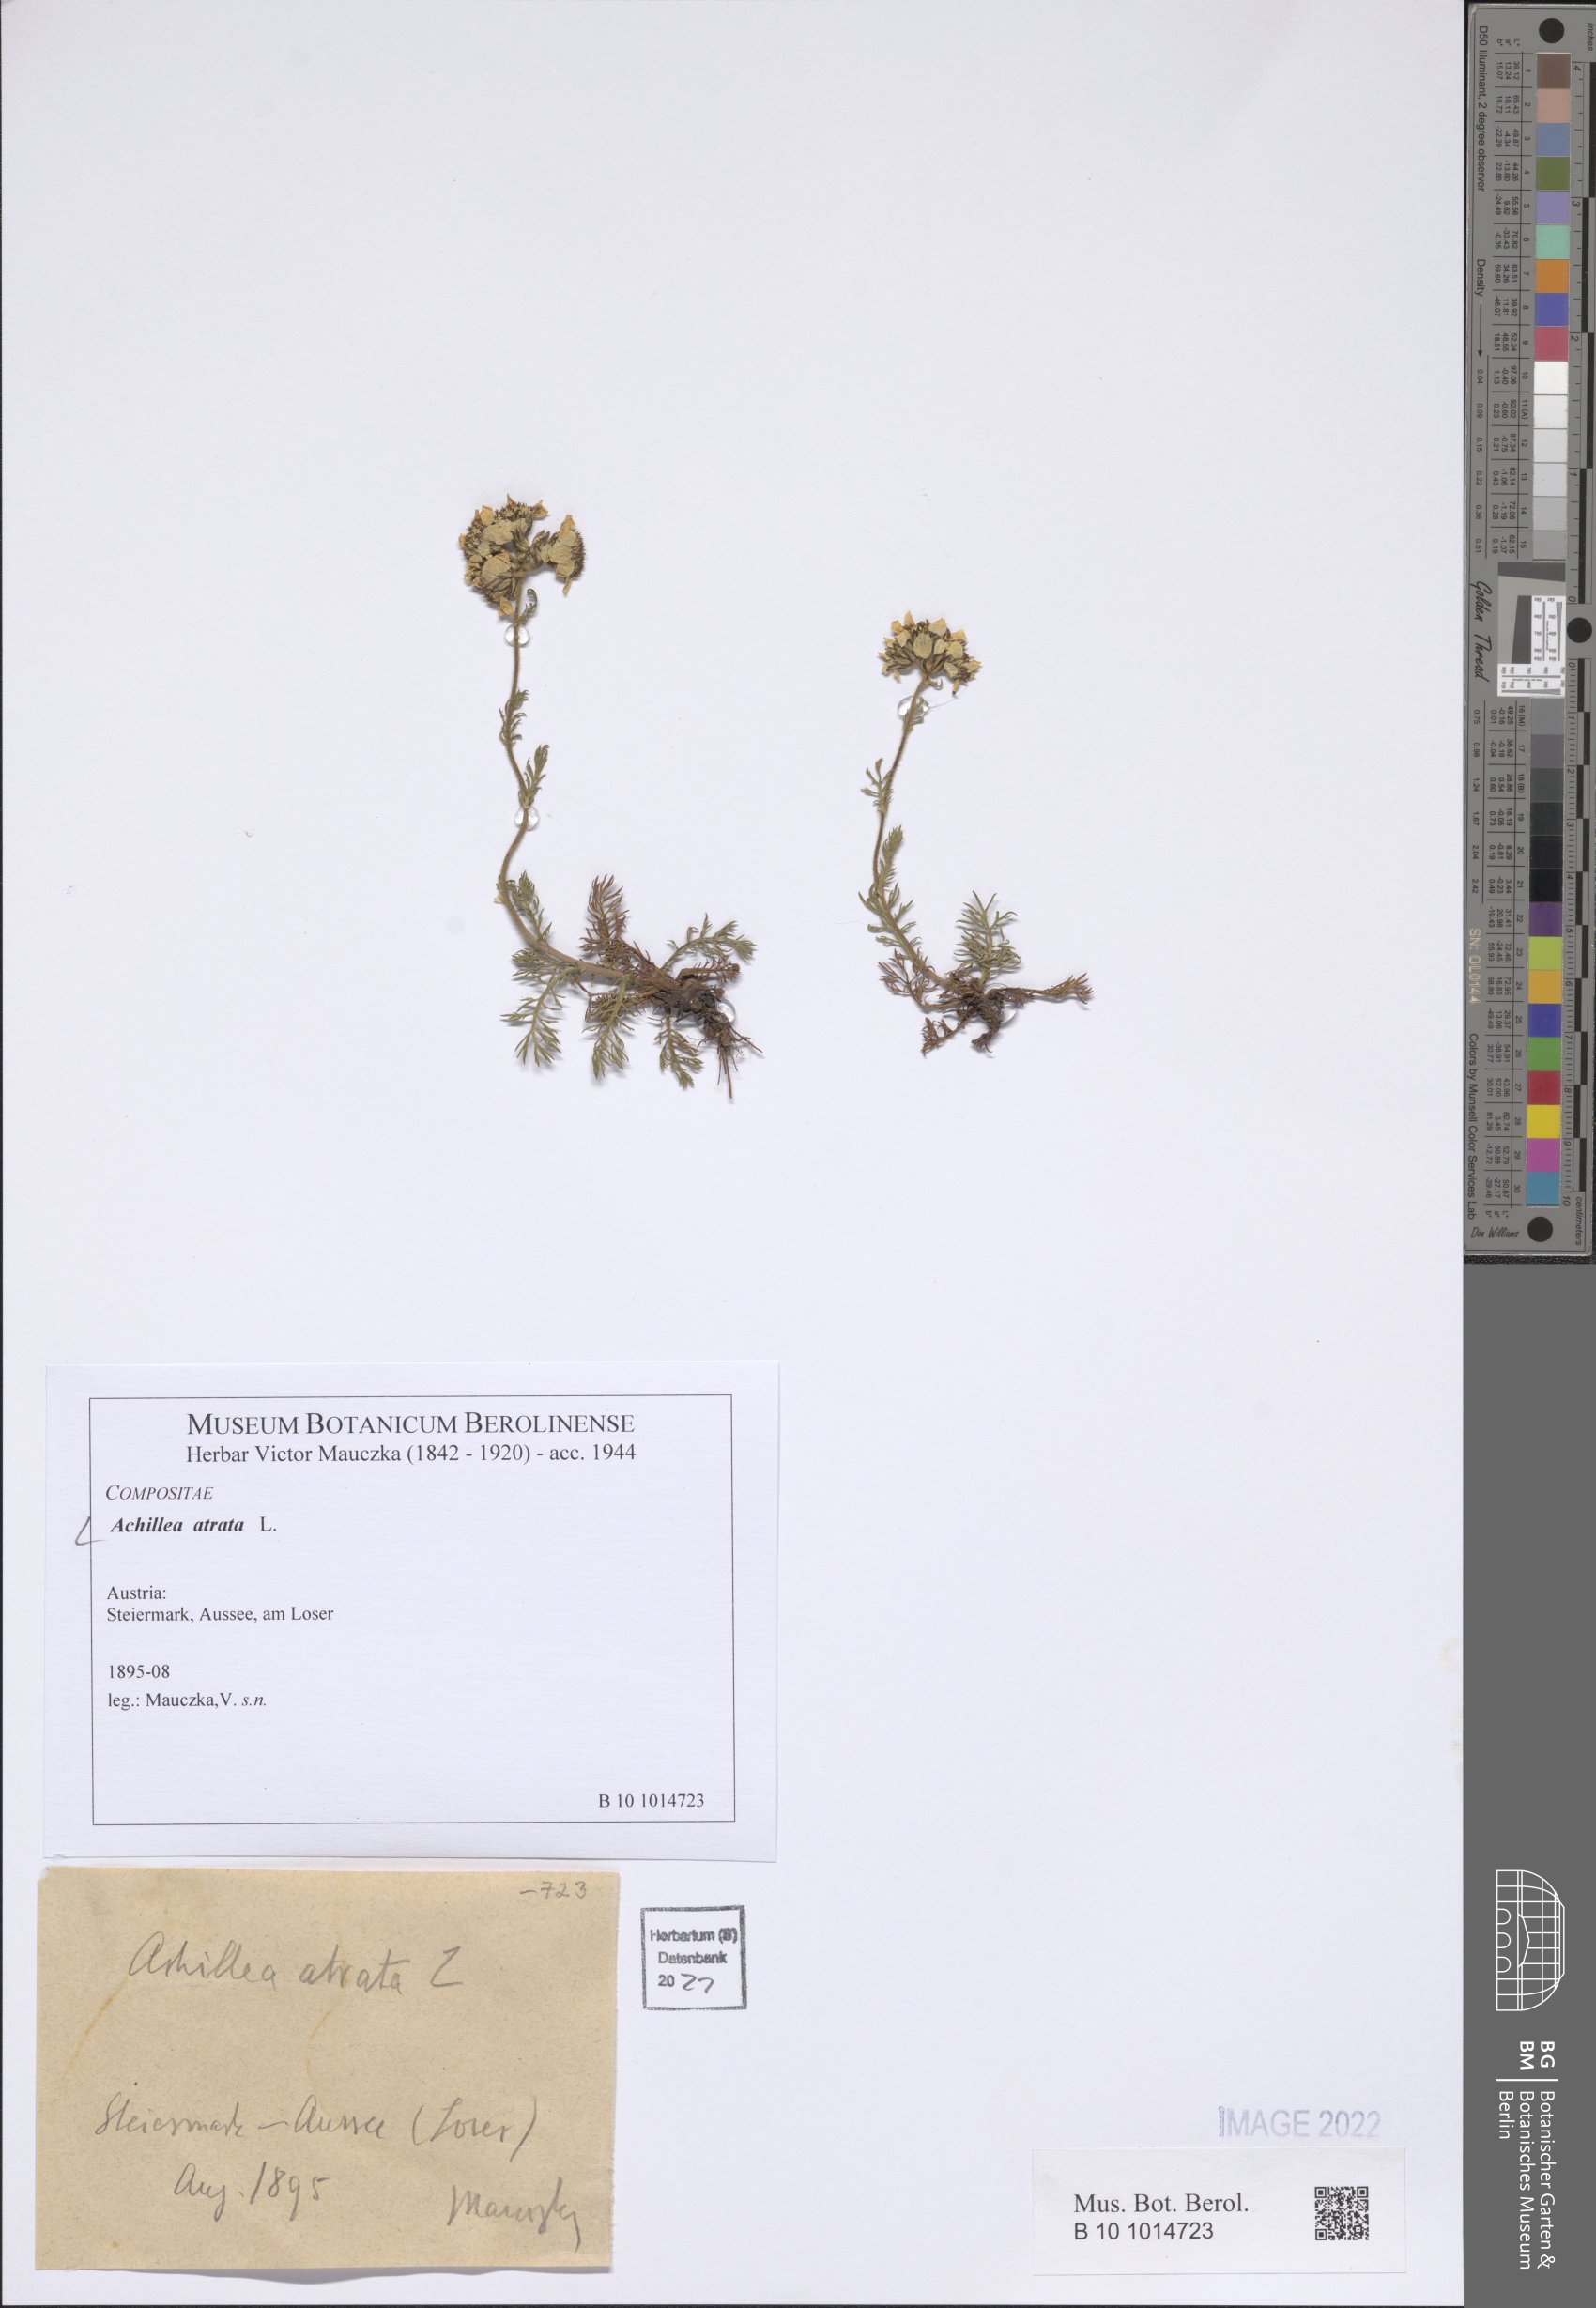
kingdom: Plantae
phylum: Tracheophyta
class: Magnoliopsida
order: Asterales
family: Asteraceae
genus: Achillea
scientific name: Achillea atrata
